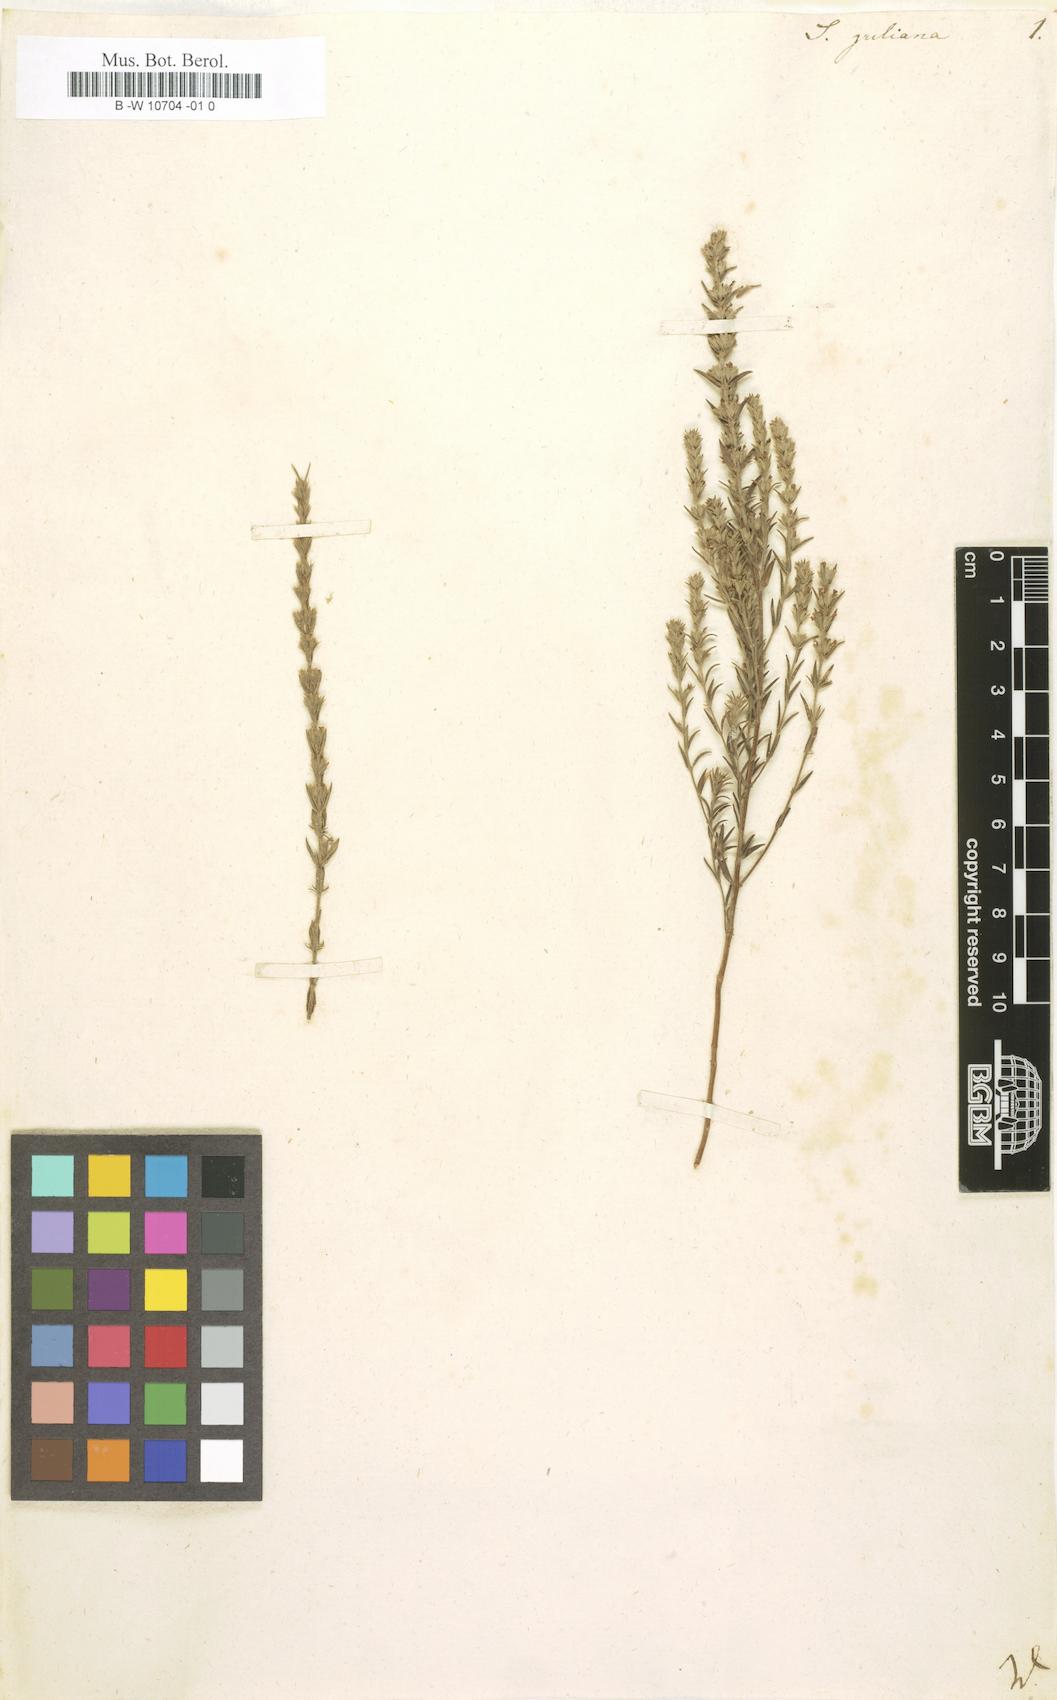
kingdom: Plantae
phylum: Tracheophyta
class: Magnoliopsida
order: Lamiales
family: Lamiaceae
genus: Micromeria
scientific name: Micromeria juliana
